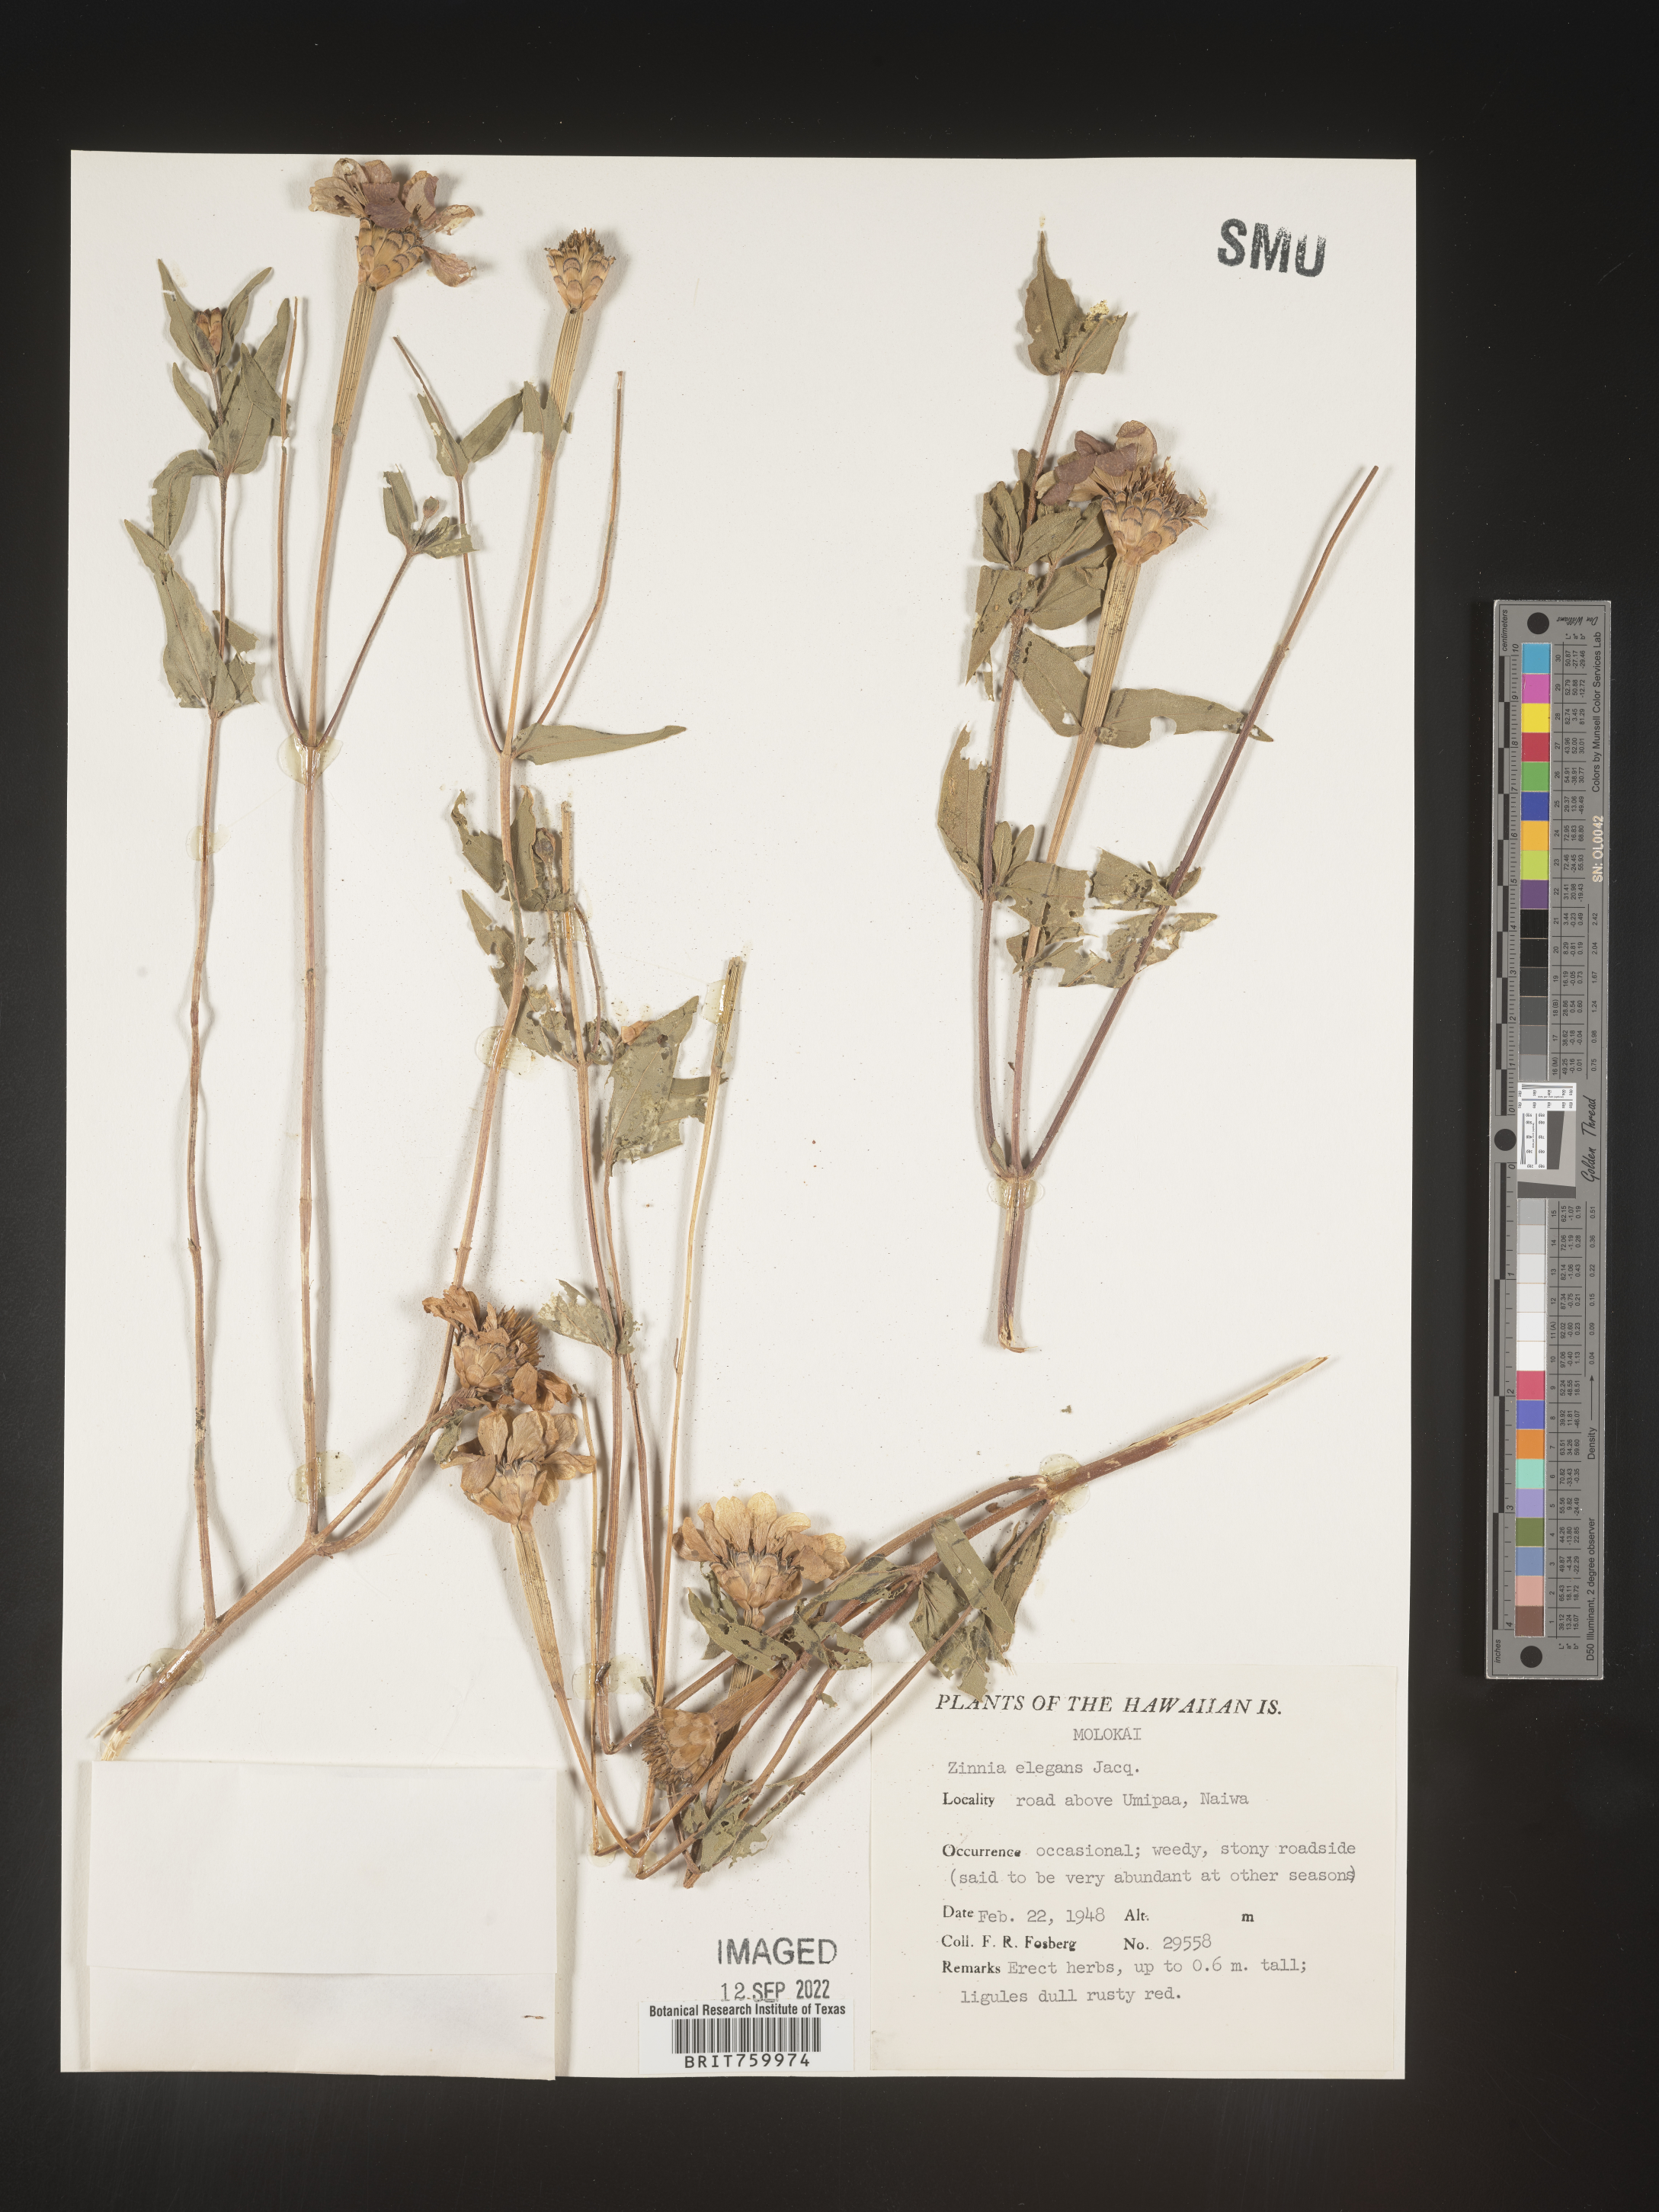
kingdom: Plantae
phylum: Tracheophyta
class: Magnoliopsida
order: Asterales
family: Asteraceae
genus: Zinnia
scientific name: Zinnia elegans
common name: Youth-and-age
